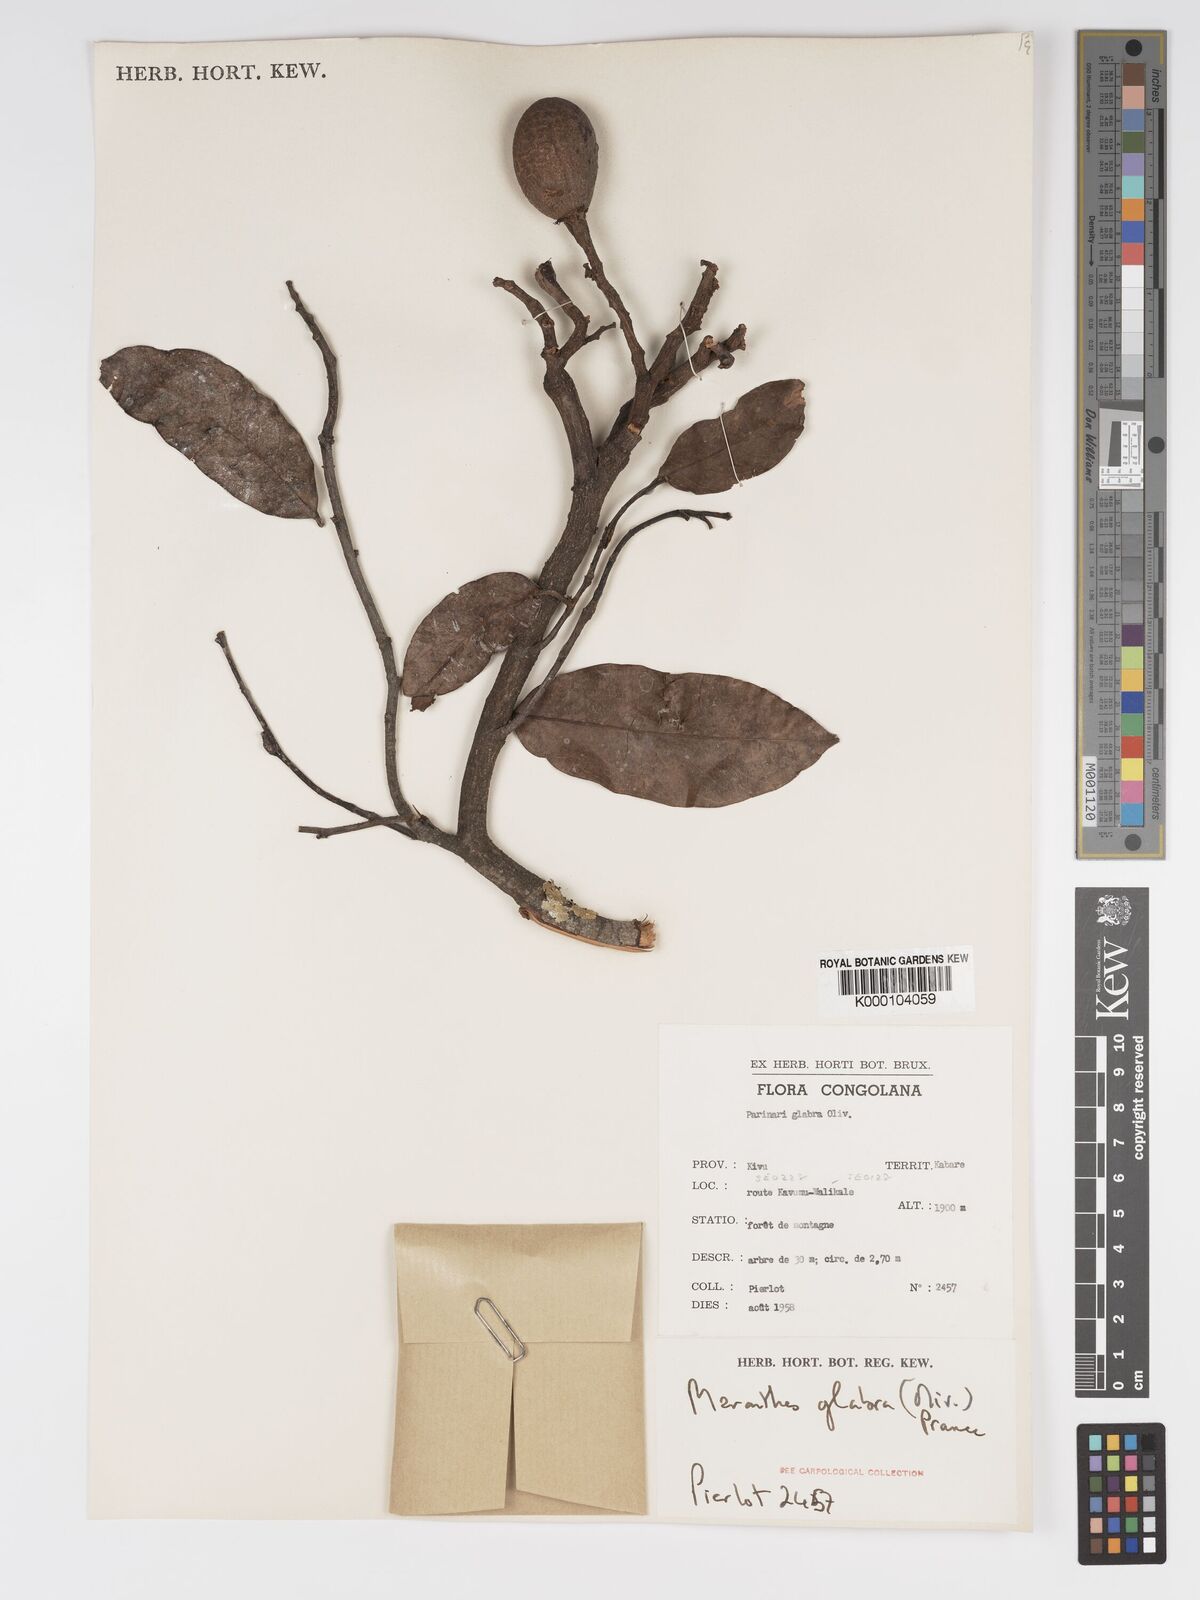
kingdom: Plantae
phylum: Tracheophyta
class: Magnoliopsida
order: Malpighiales
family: Chrysobalanaceae
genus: Maranthes
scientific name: Maranthes glabra
